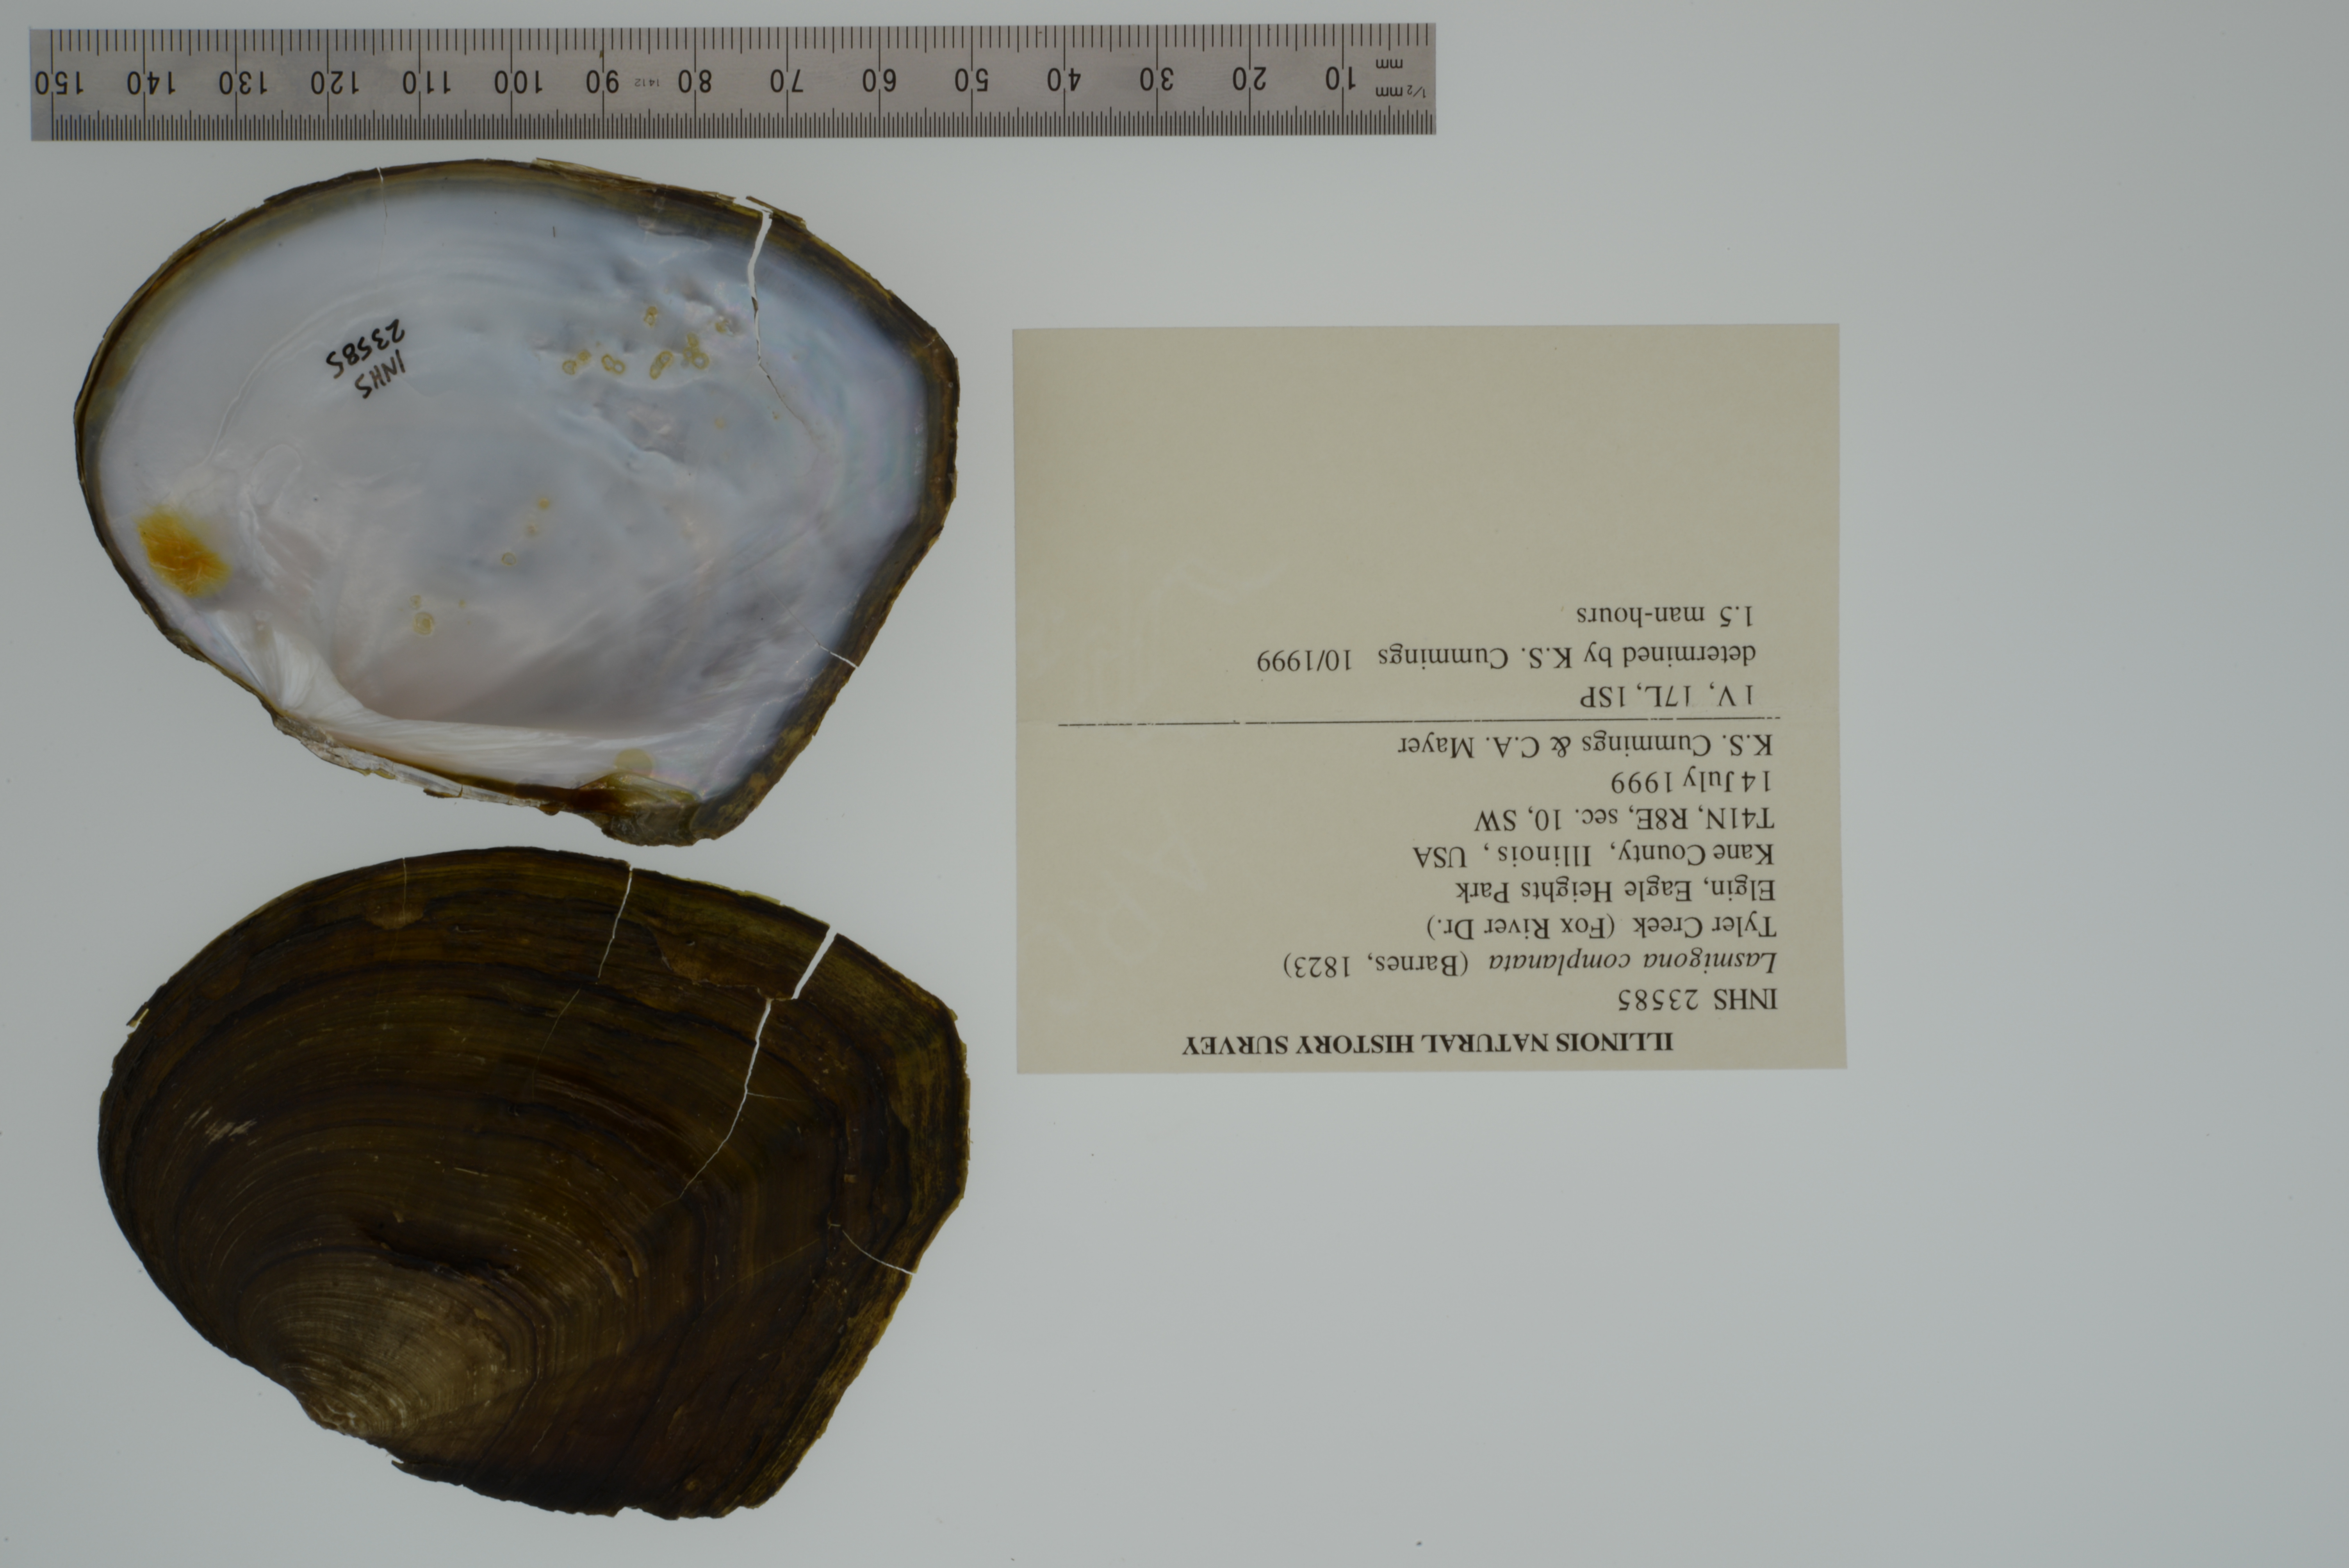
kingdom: Animalia
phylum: Mollusca
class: Bivalvia
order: Unionida
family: Unionidae
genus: Lasmigona
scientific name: Lasmigona complanata
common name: White heelsplitter
